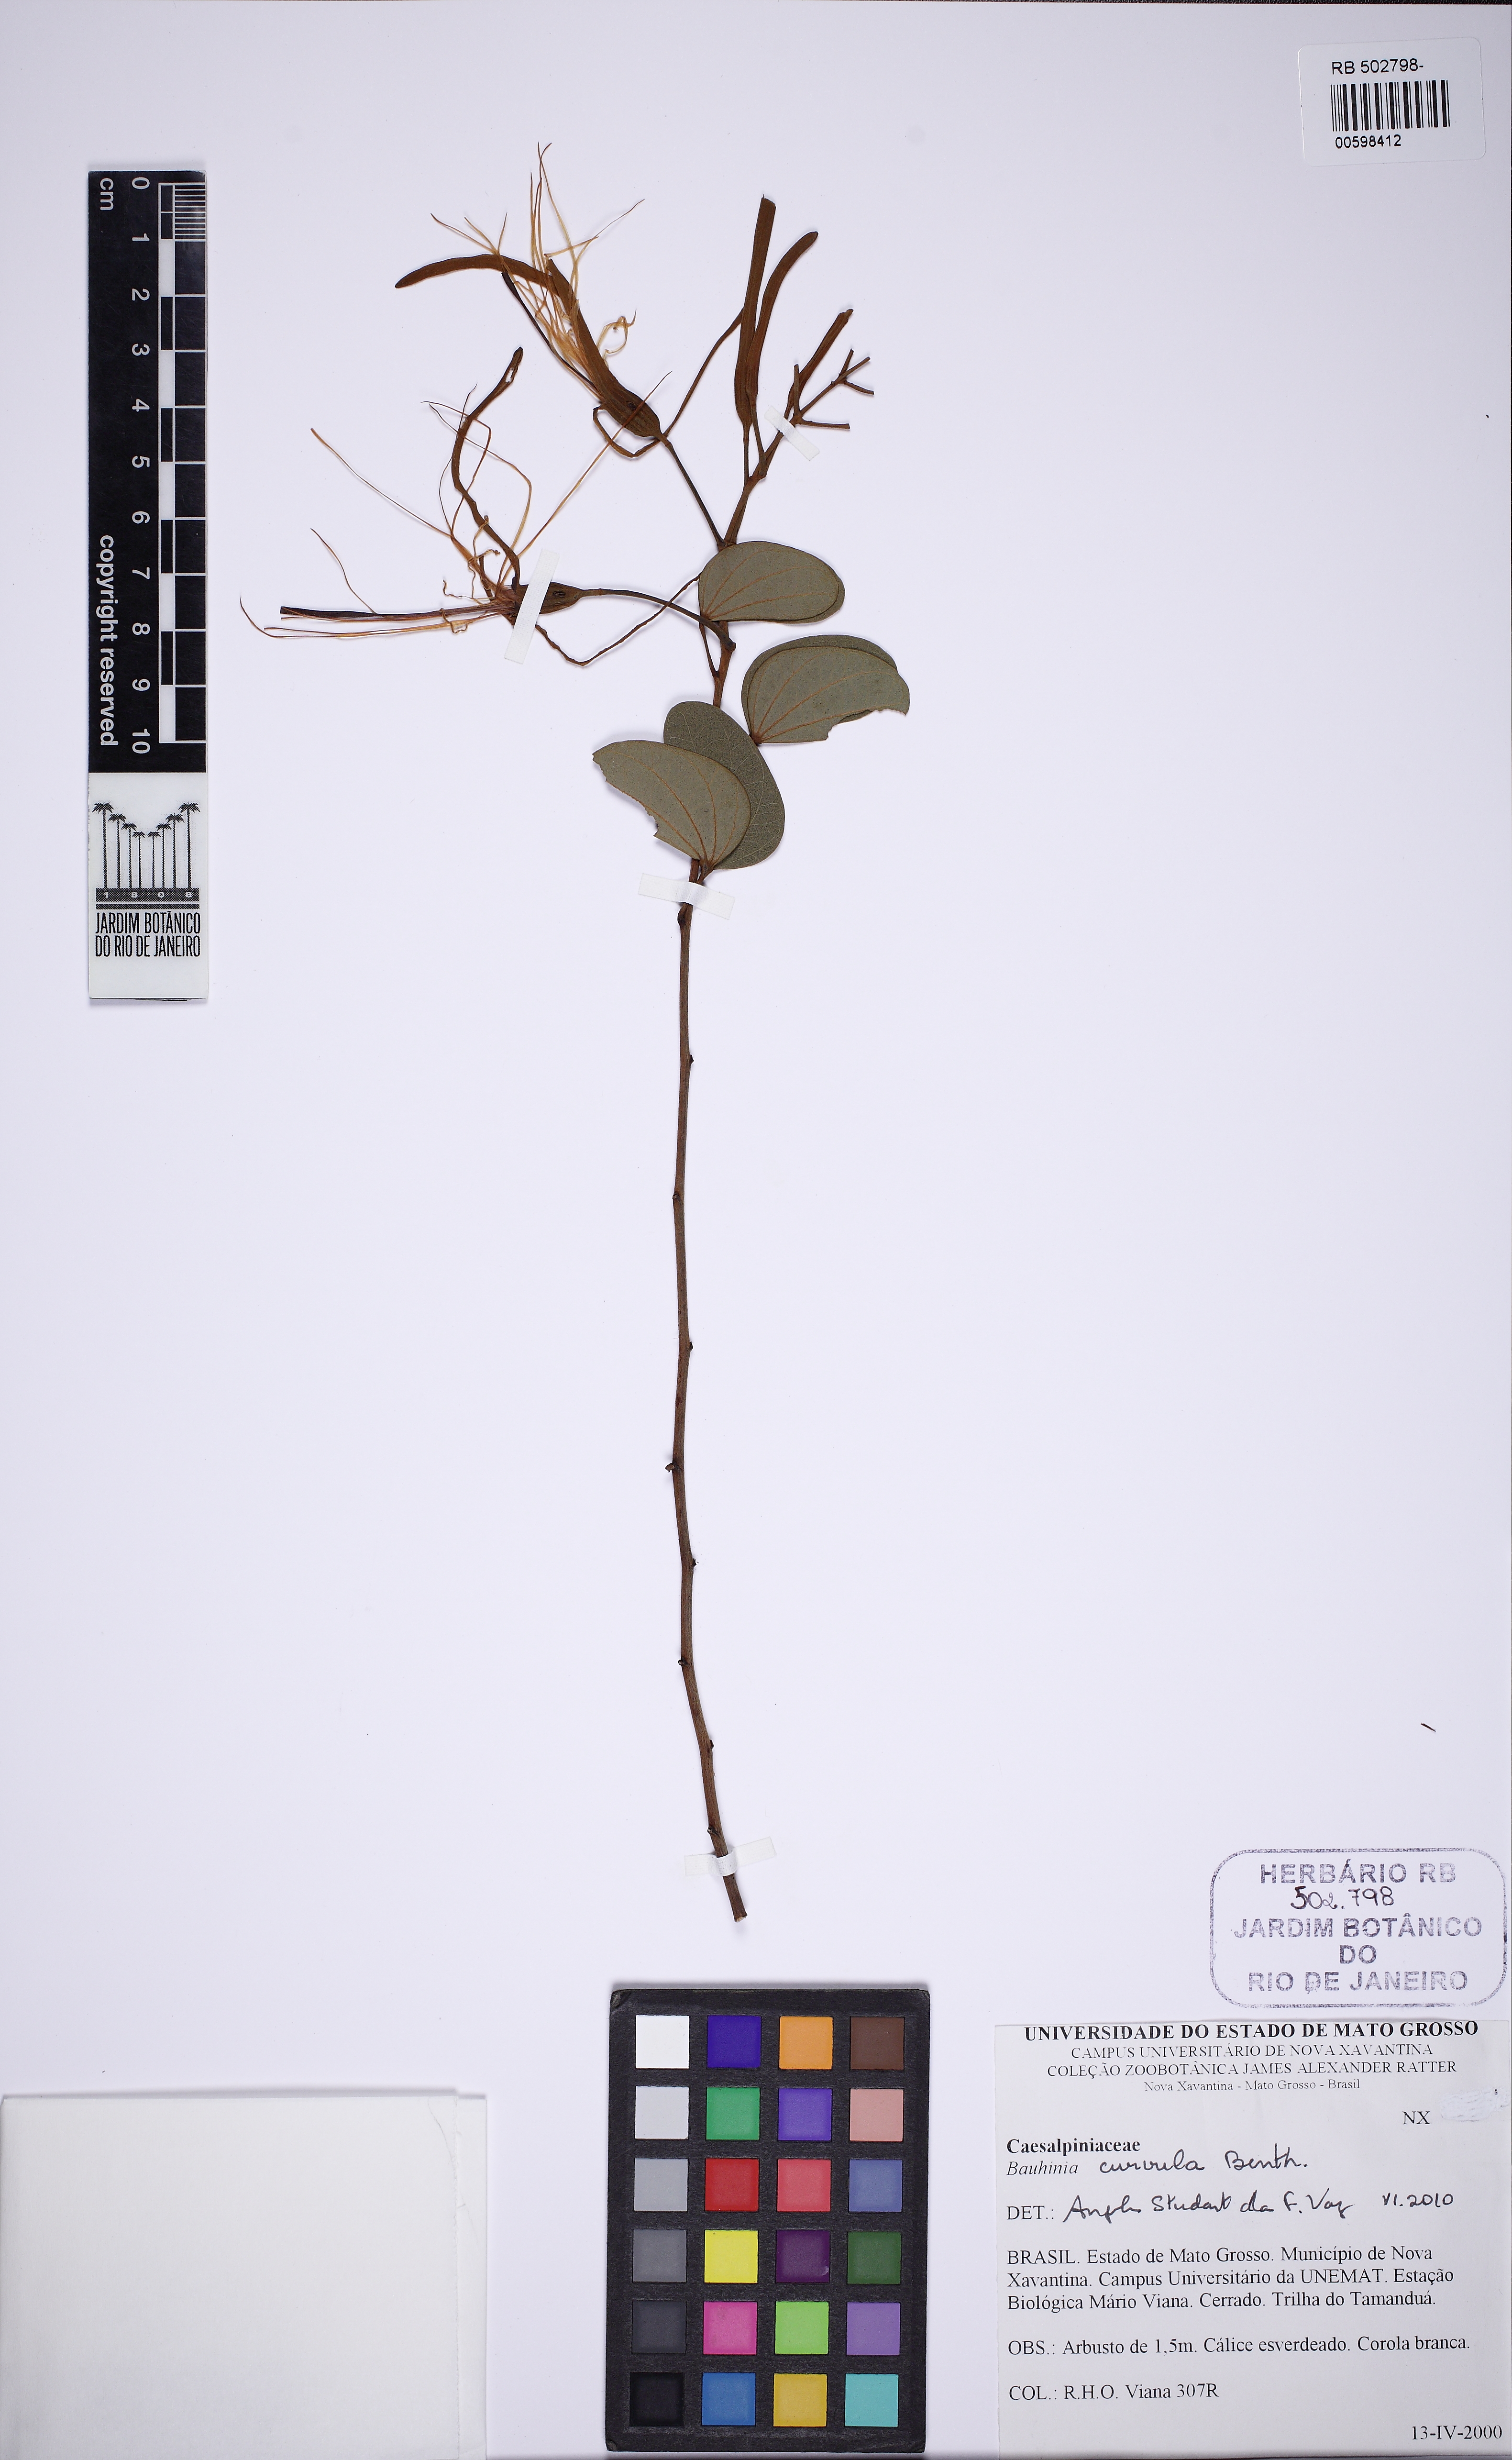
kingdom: Plantae
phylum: Tracheophyta
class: Magnoliopsida
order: Fabales
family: Fabaceae
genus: Bauhinia
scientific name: Bauhinia curvula
